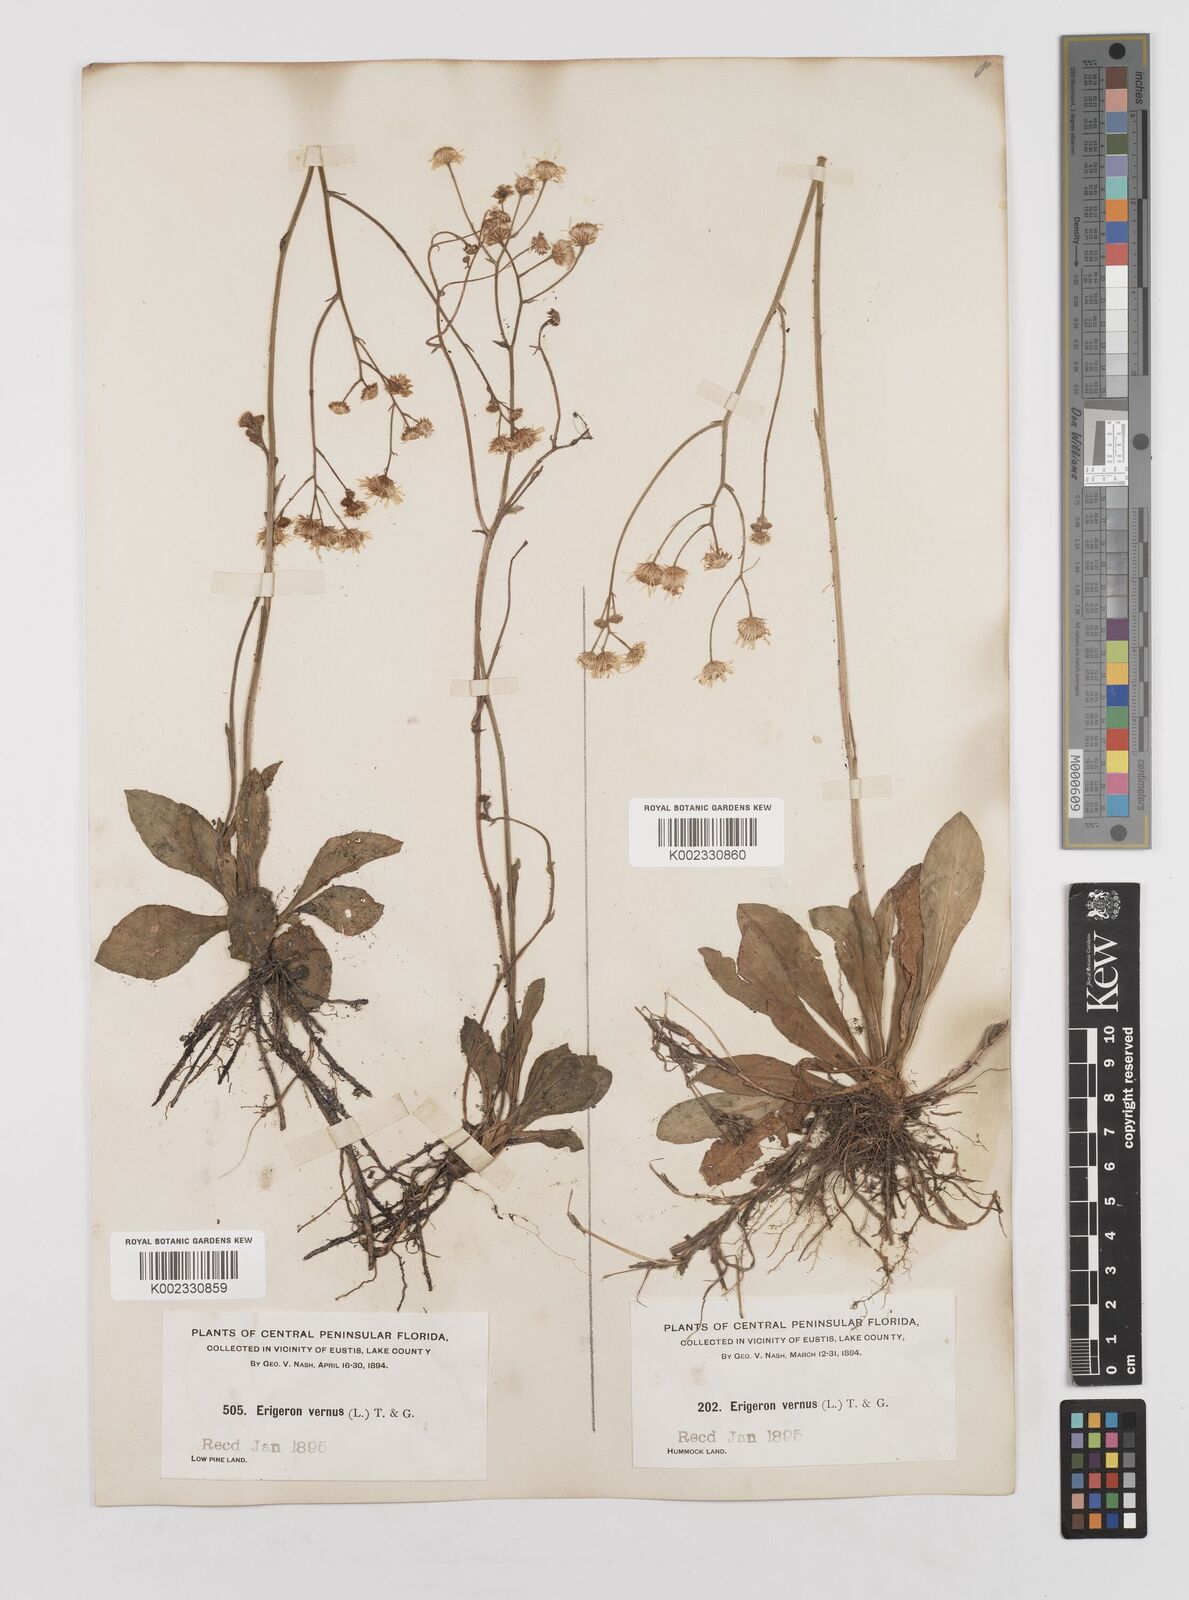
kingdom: Plantae
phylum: Tracheophyta
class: Magnoliopsida
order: Asterales
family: Asteraceae
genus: Erigeron
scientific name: Erigeron vernus
